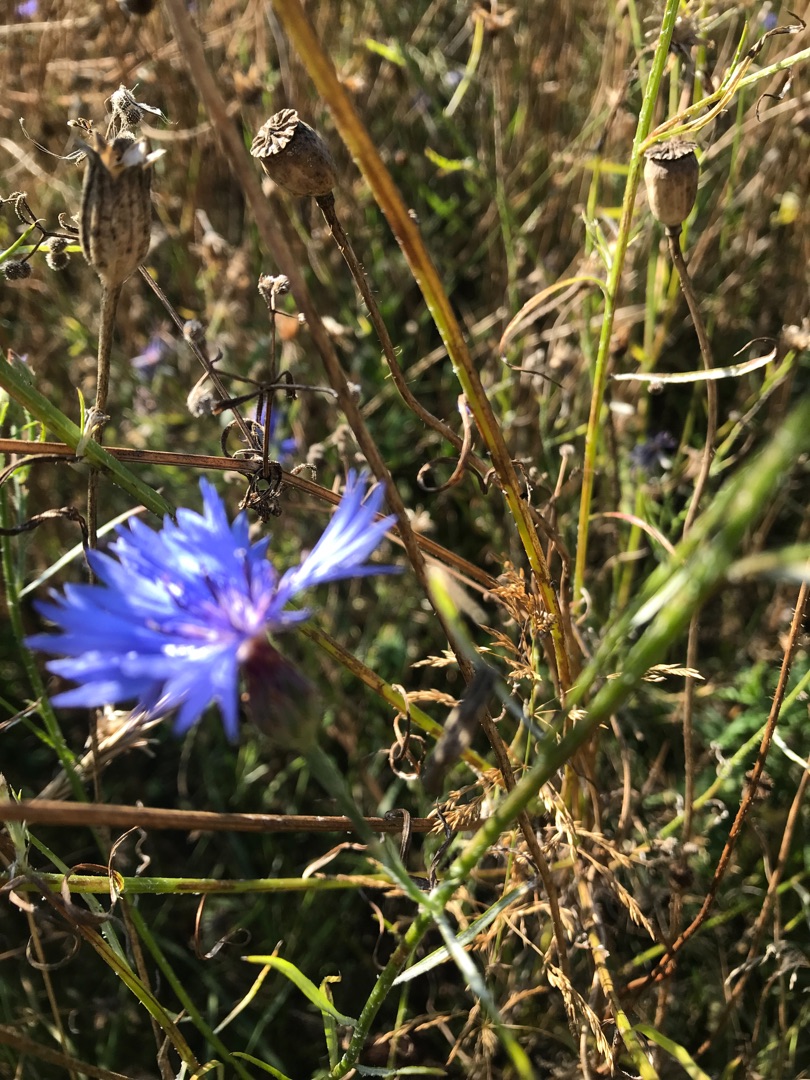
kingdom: Plantae
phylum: Tracheophyta
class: Magnoliopsida
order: Asterales
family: Asteraceae
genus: Centaurea
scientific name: Centaurea cyanus
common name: Kornblomst
